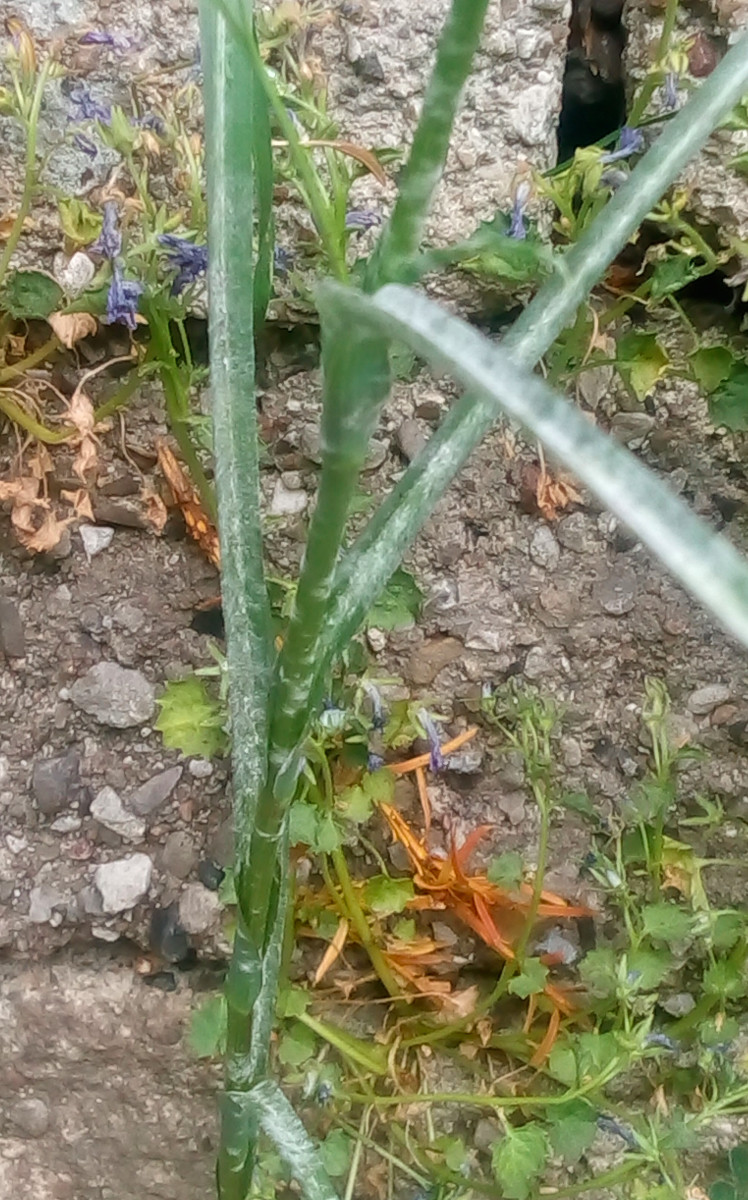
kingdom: Fungi
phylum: Ascomycota
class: Leotiomycetes
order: Helotiales
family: Erysiphaceae
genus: Golovinomyces
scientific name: Golovinomyces cichoracearum
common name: kurvblomst-meldug
